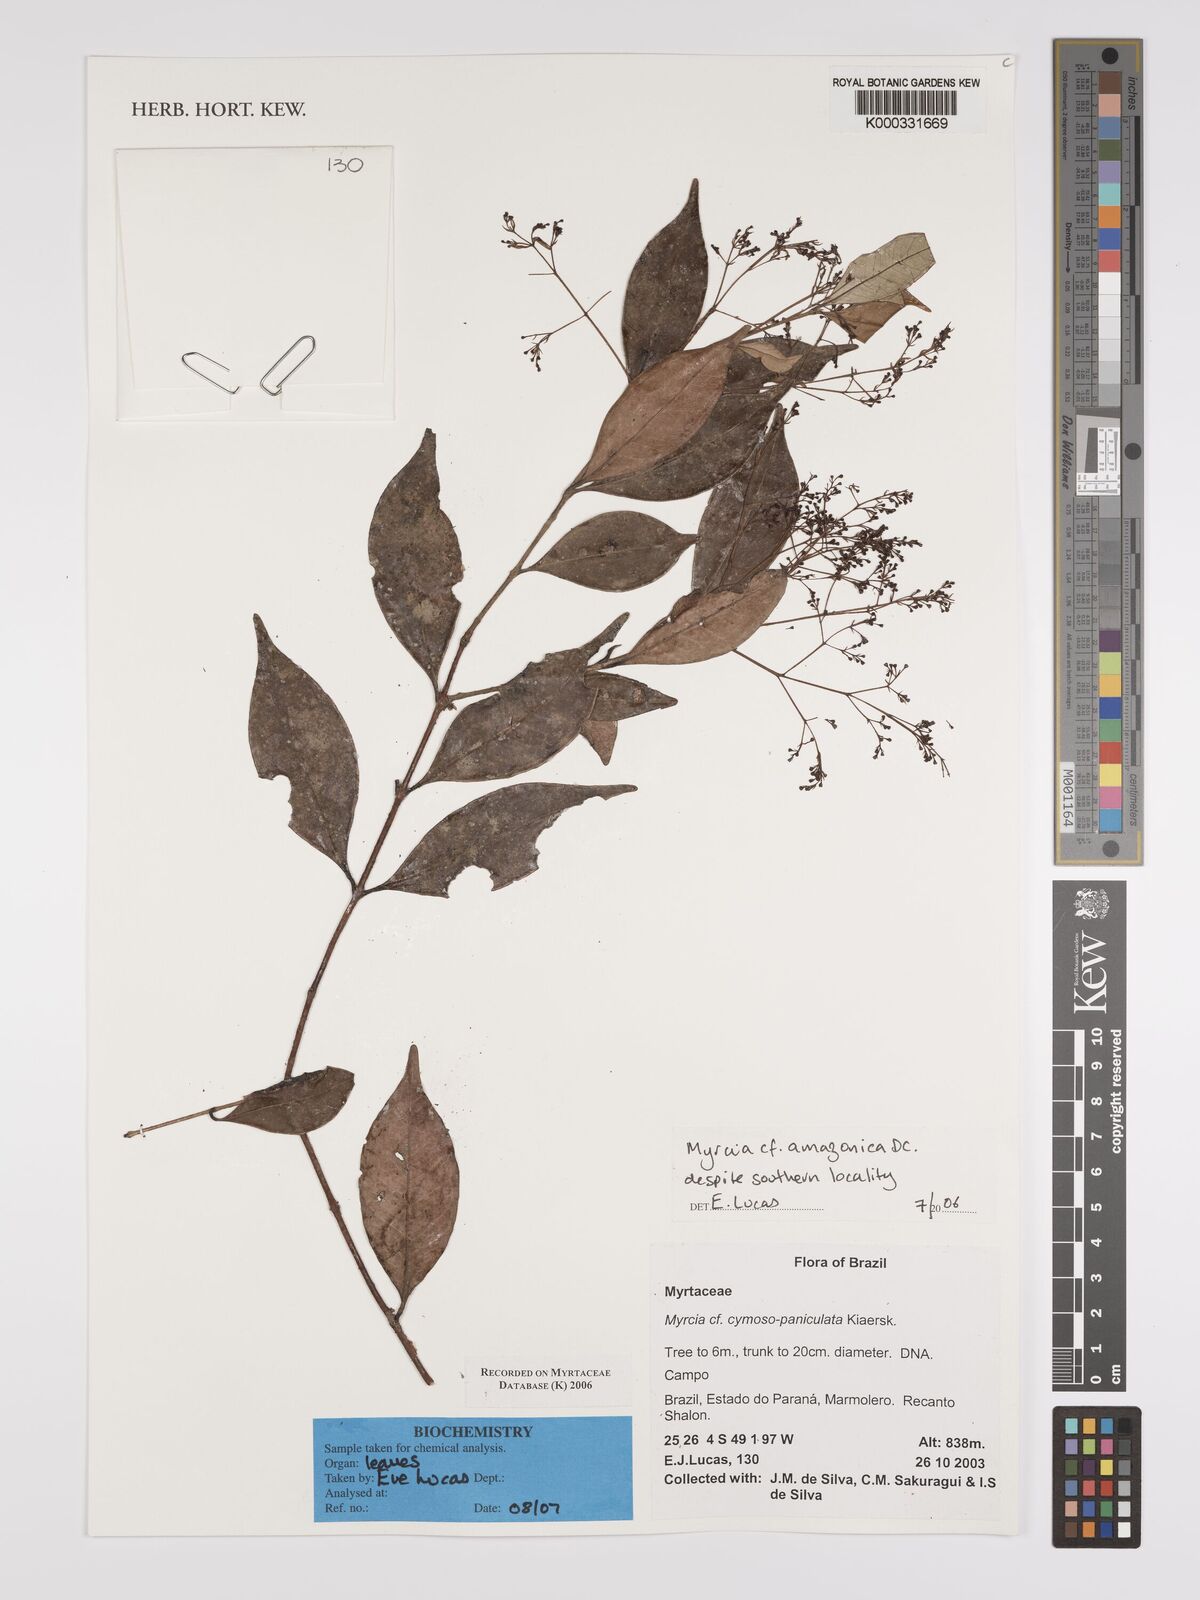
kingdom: Plantae
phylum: Tracheophyta
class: Magnoliopsida
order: Myrtales
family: Myrtaceae
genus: Myrcia
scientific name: Myrcia amazonica
